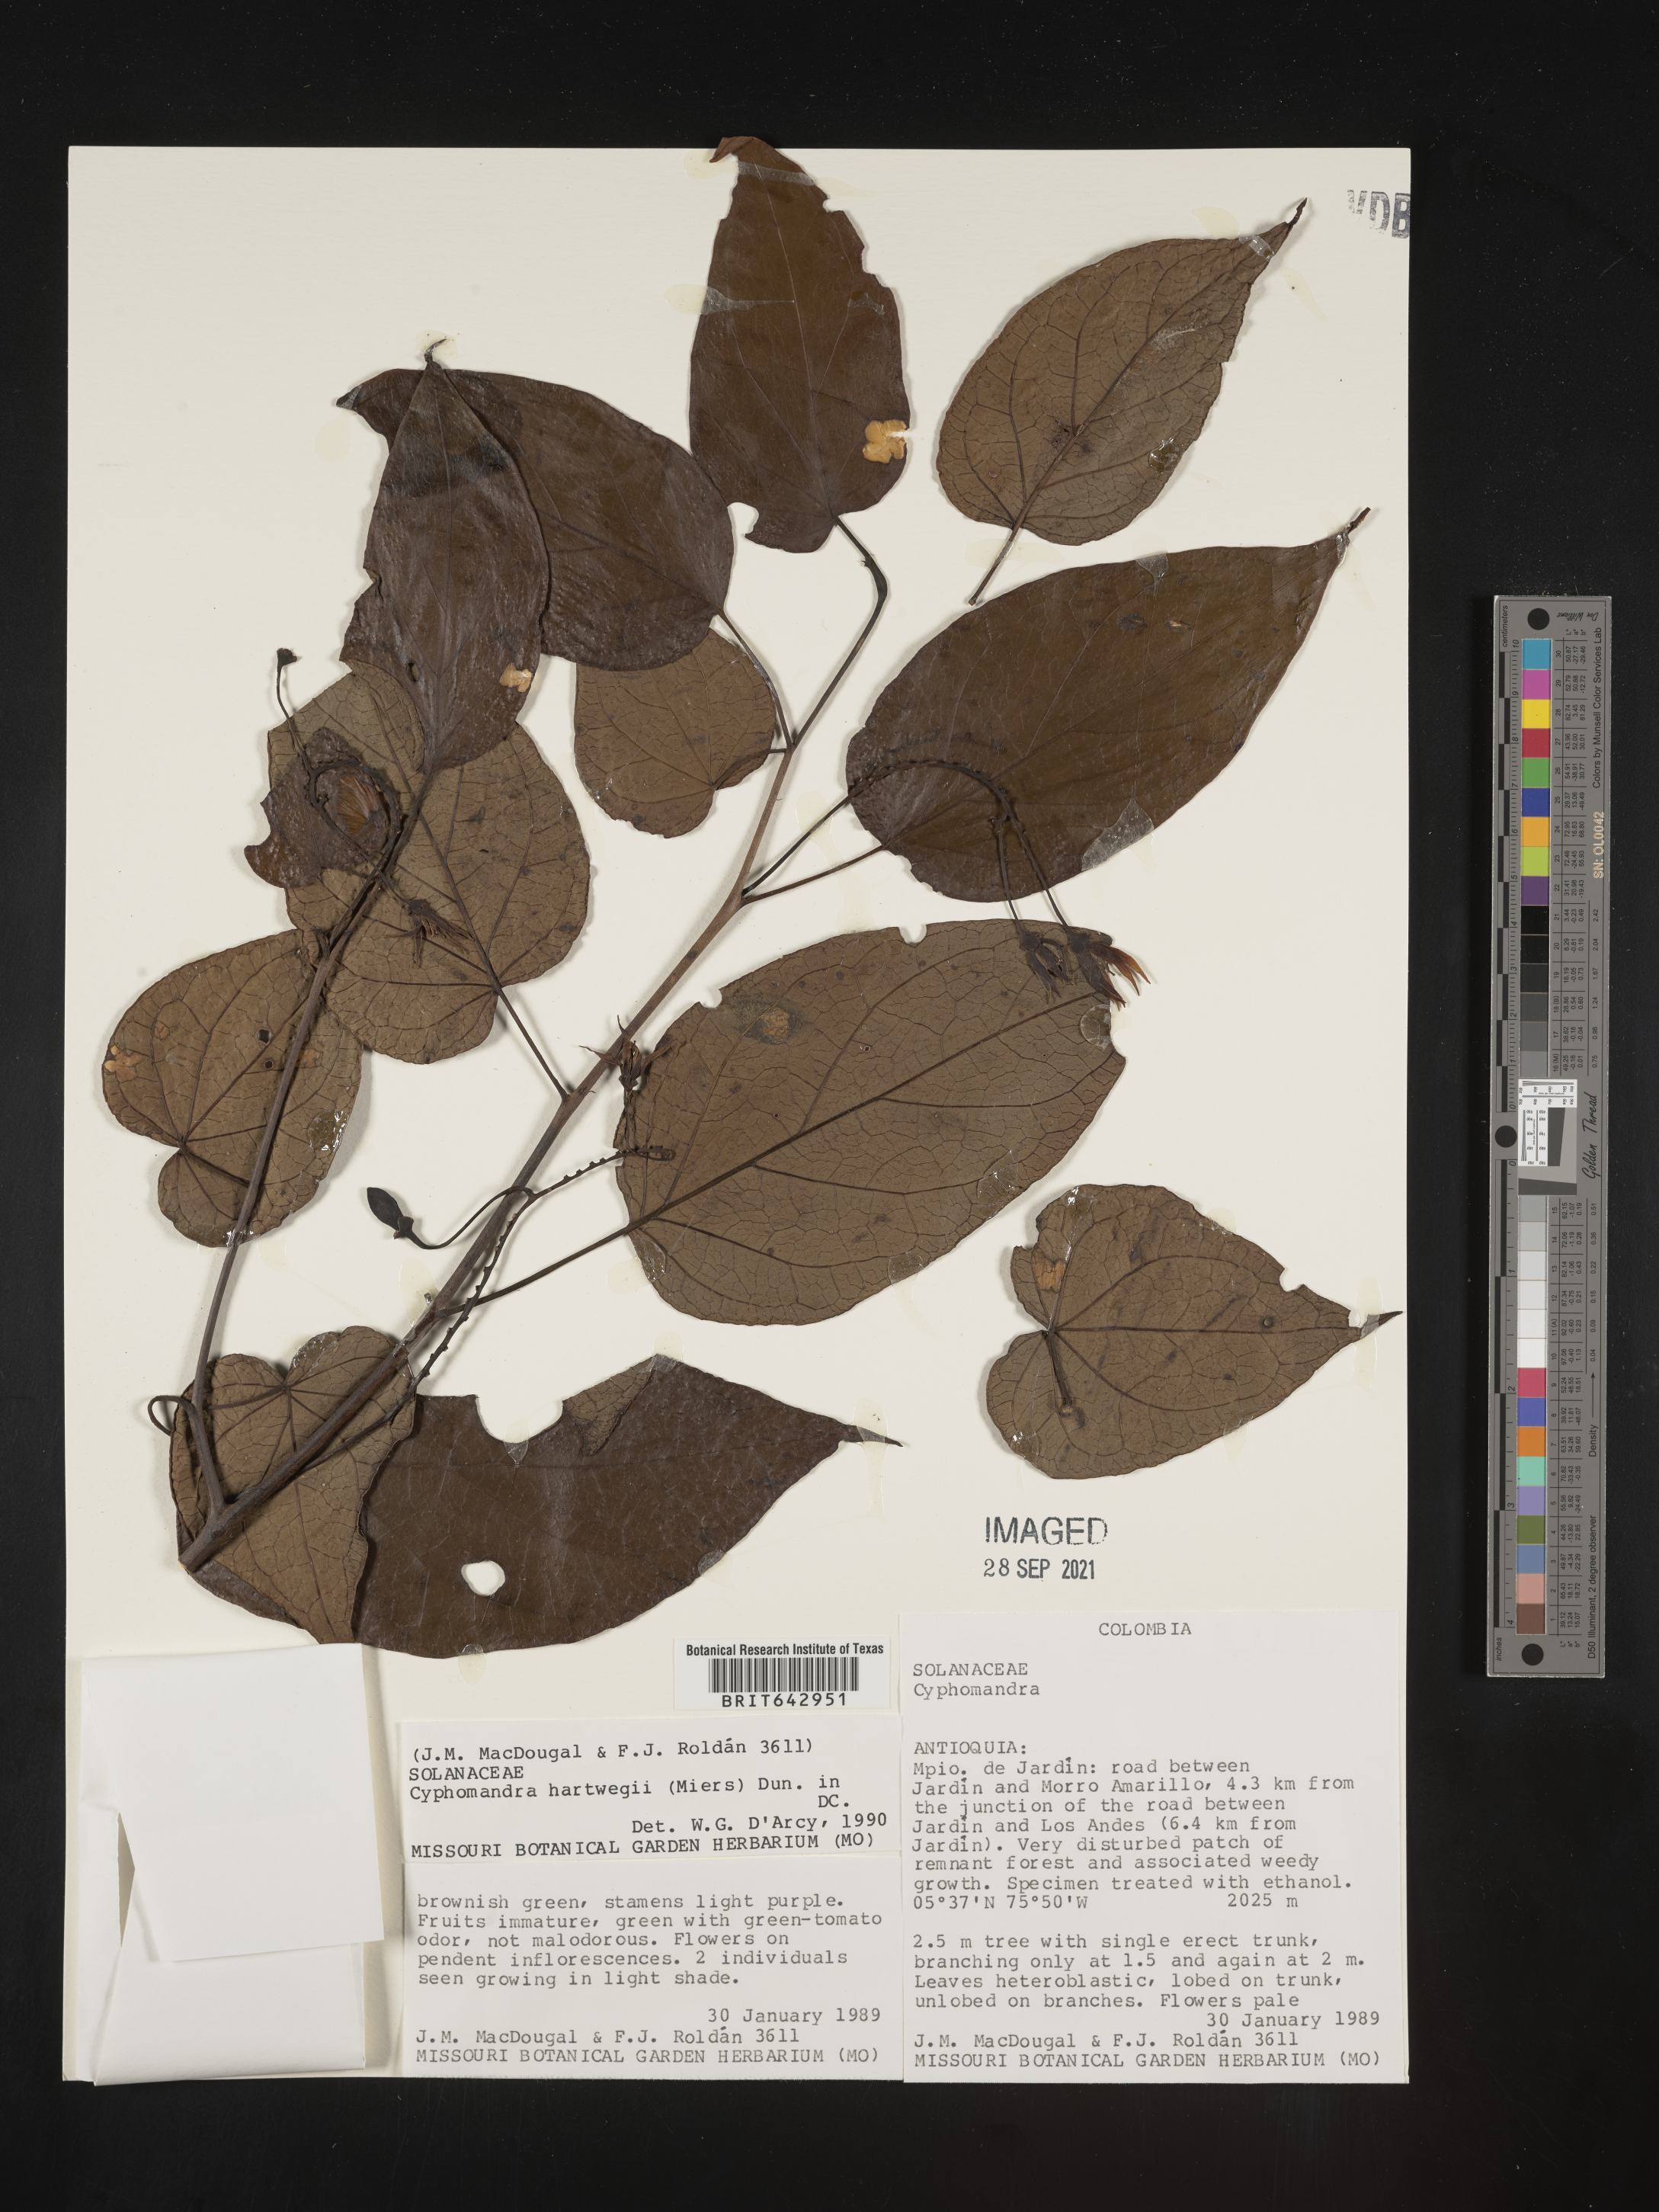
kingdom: Plantae
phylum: Tracheophyta
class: Magnoliopsida
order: Solanales
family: Solanaceae
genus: Solanum
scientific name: Solanum
